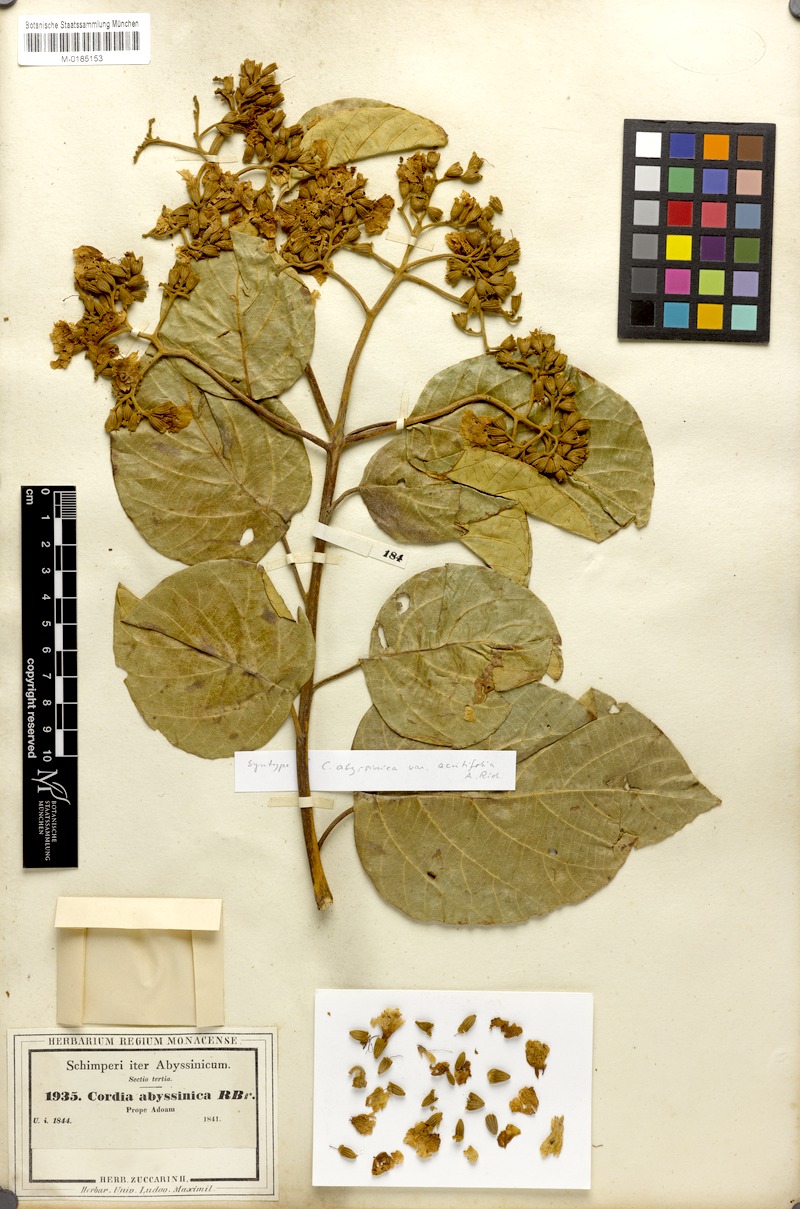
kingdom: Plantae
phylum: Tracheophyta
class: Magnoliopsida
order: Boraginales
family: Cordiaceae
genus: Cordia
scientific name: Cordia africana
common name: Large-leaved cordia
